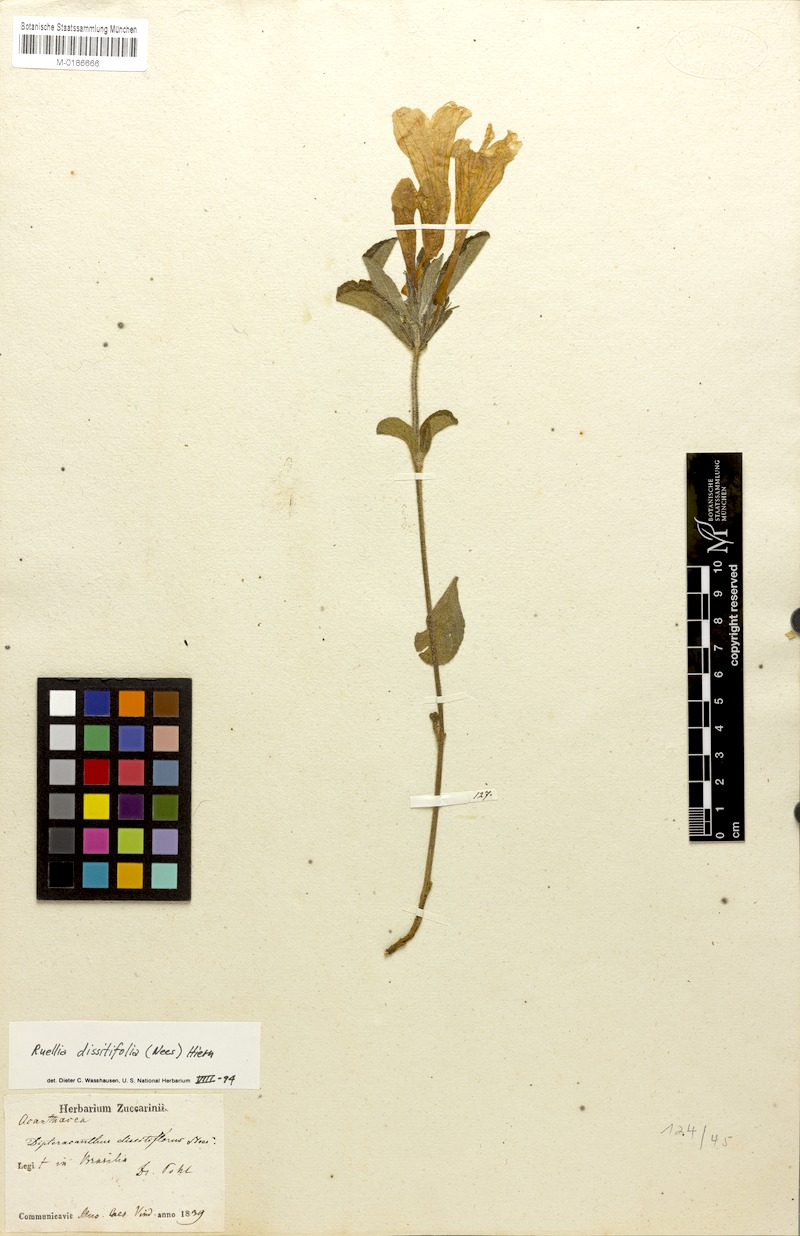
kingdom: Plantae
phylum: Tracheophyta
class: Magnoliopsida
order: Lamiales
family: Acanthaceae
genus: Ruellia
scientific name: Ruellia dissitifolia
